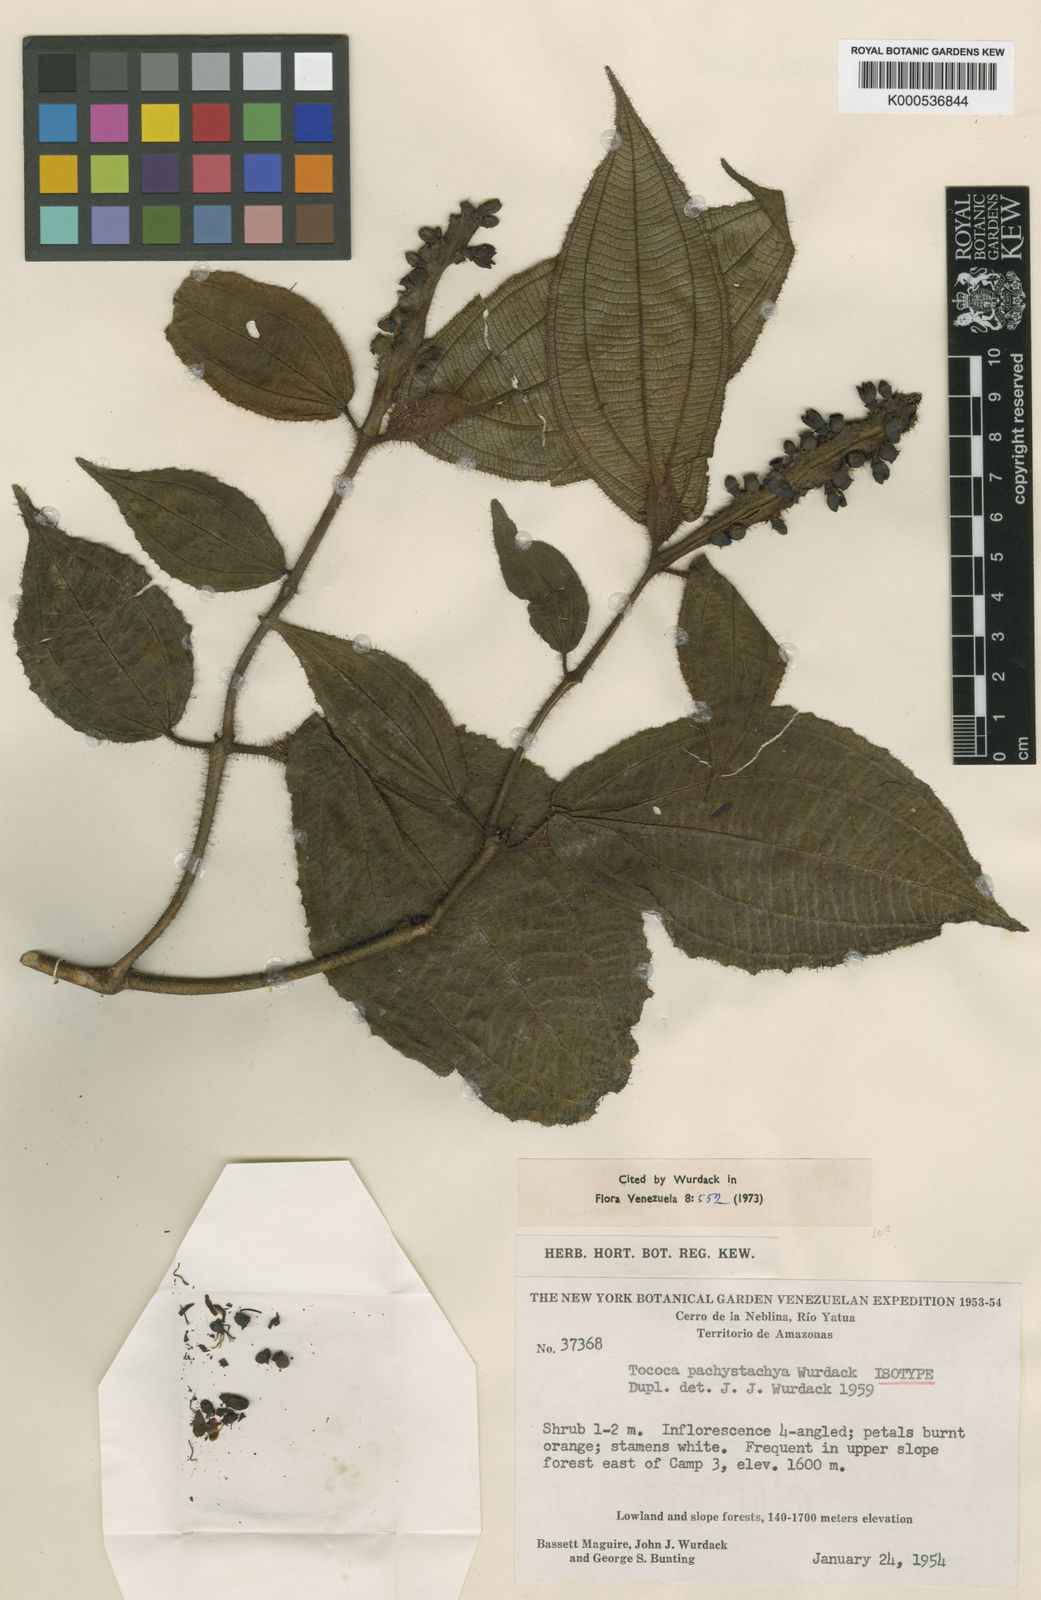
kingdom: Plantae
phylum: Tracheophyta
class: Magnoliopsida
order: Myrtales
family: Melastomataceae
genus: Miconia
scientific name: Miconia pachystachya
